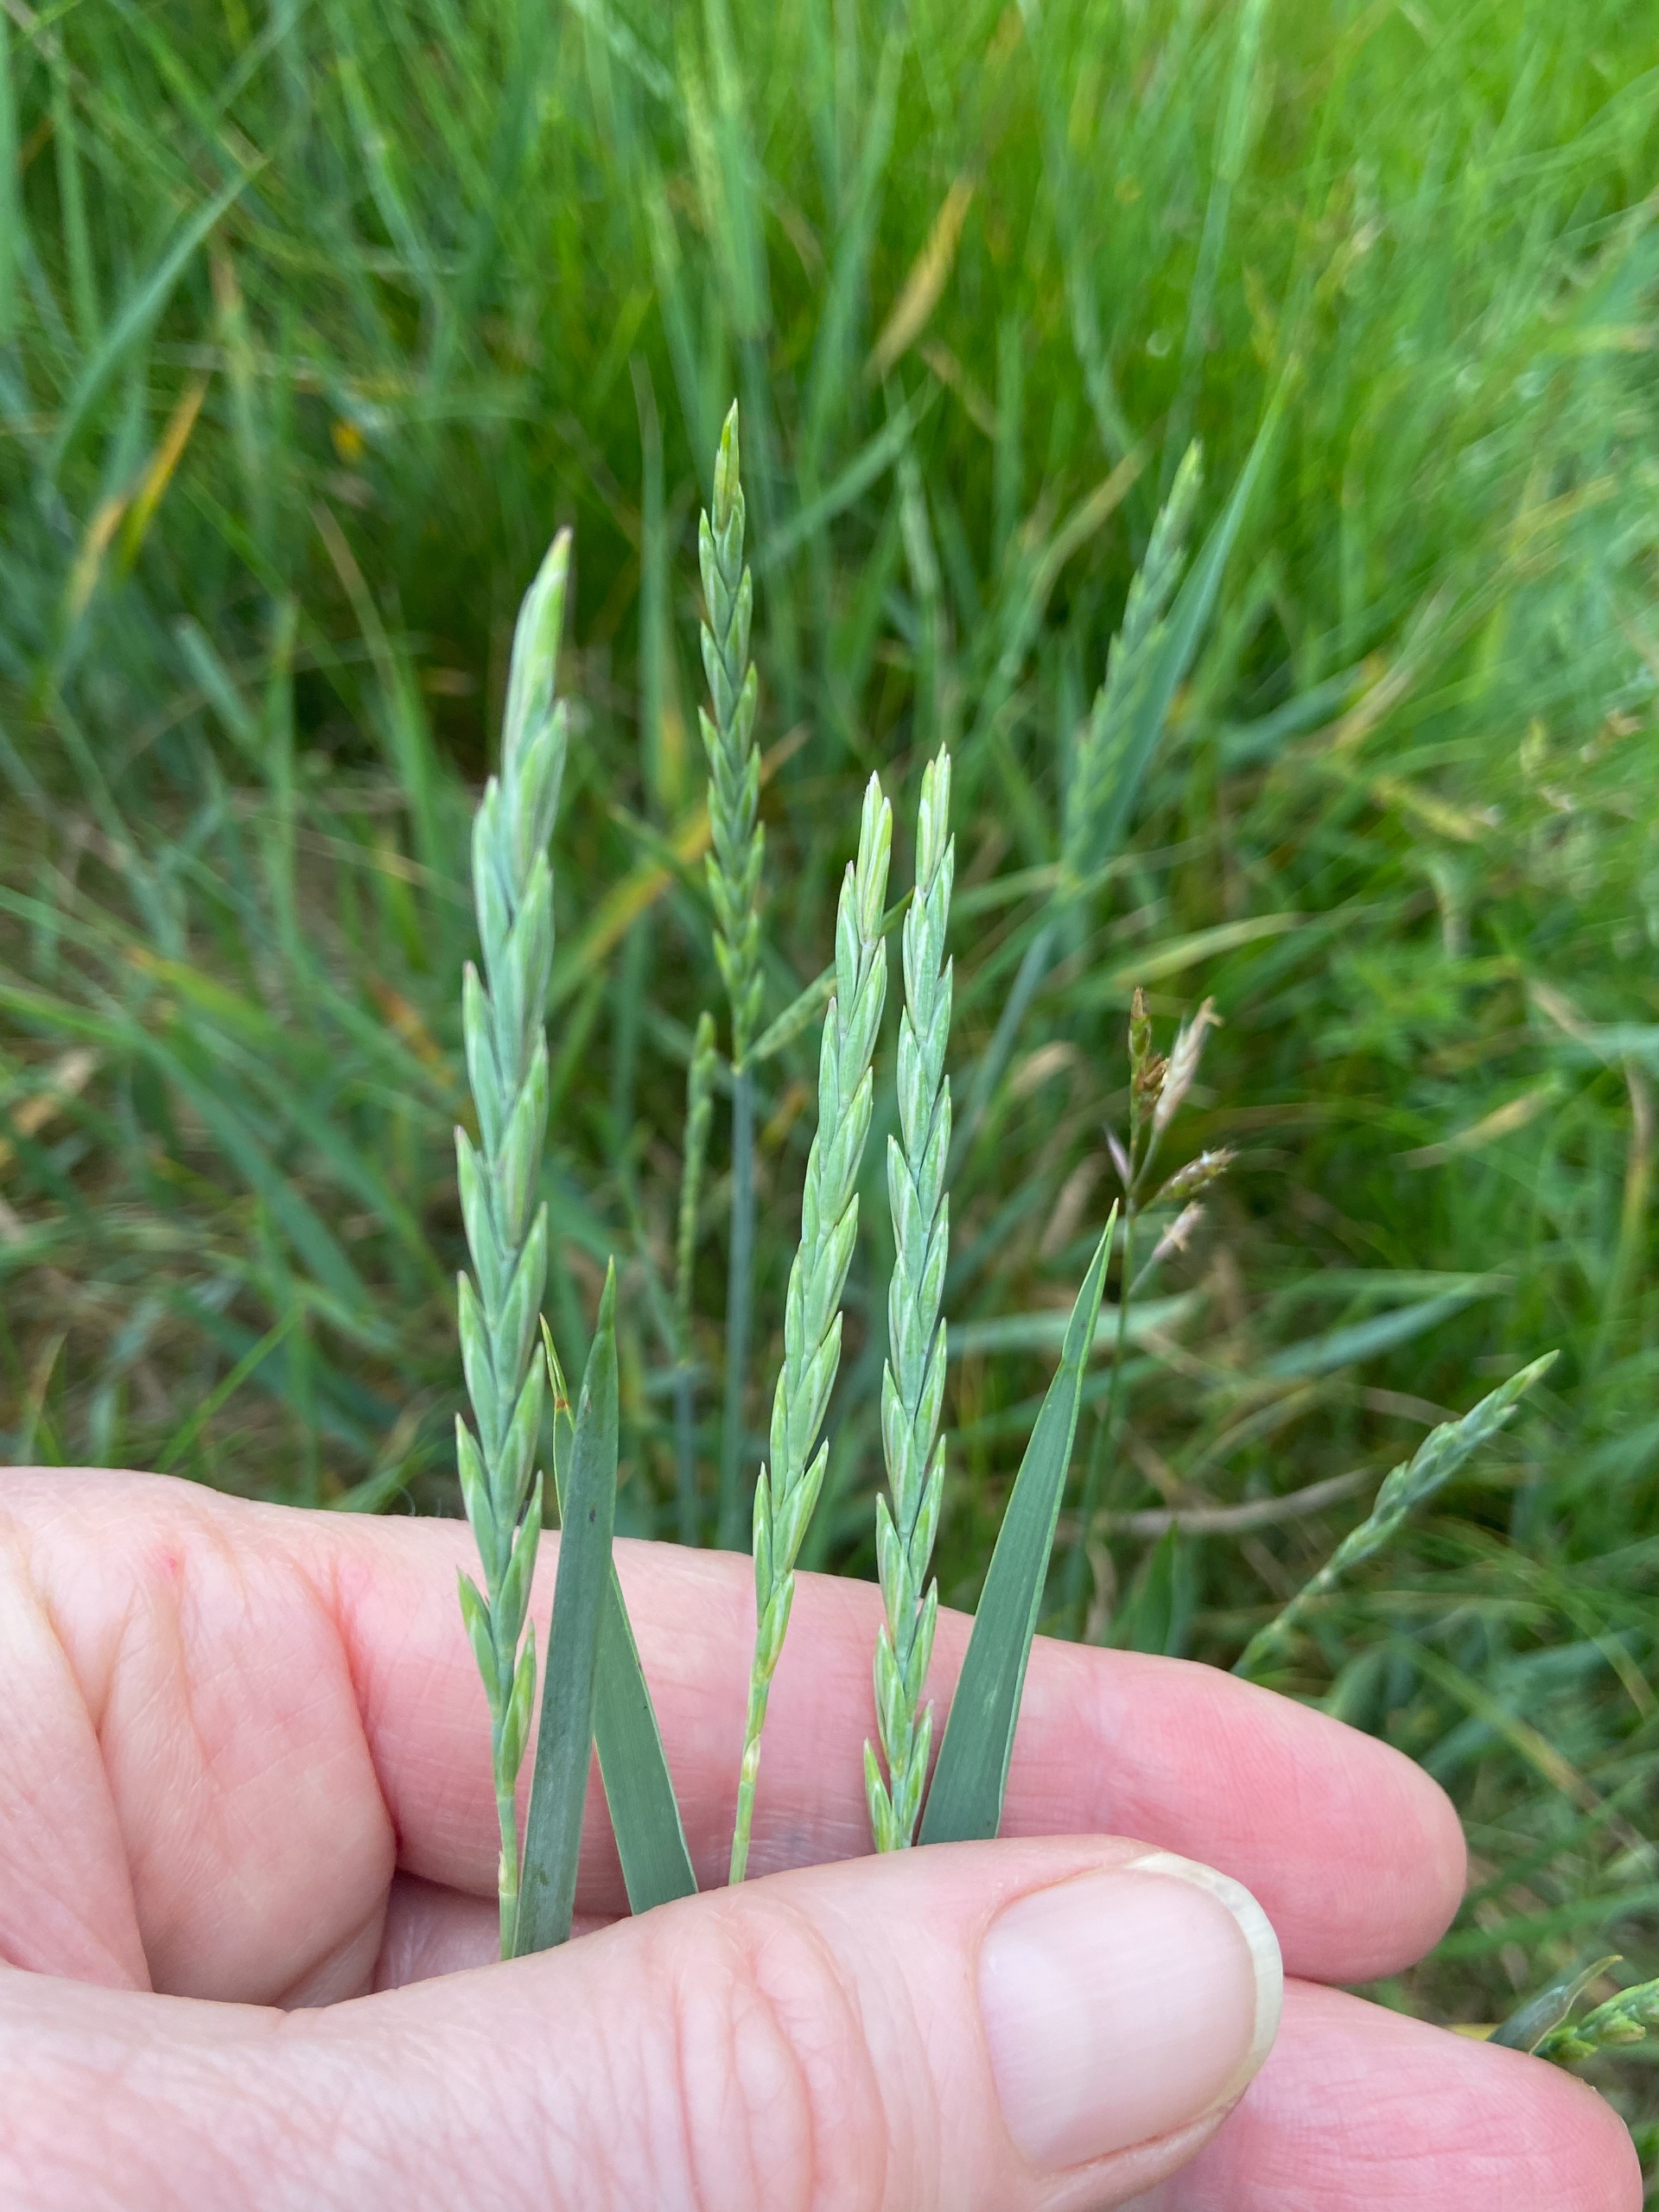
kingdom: Plantae
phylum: Tracheophyta
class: Liliopsida
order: Poales
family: Poaceae
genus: Elymus
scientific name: Elymus repens
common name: Almindelig kvik
